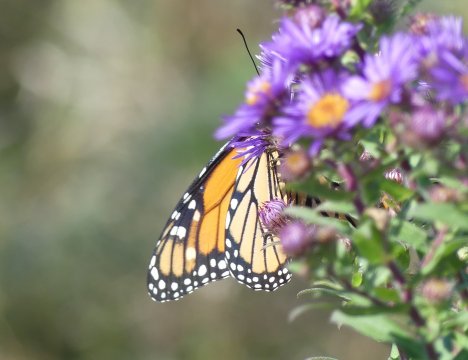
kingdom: Animalia
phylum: Arthropoda
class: Insecta
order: Lepidoptera
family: Nymphalidae
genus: Danaus
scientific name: Danaus plexippus
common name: Monarch
